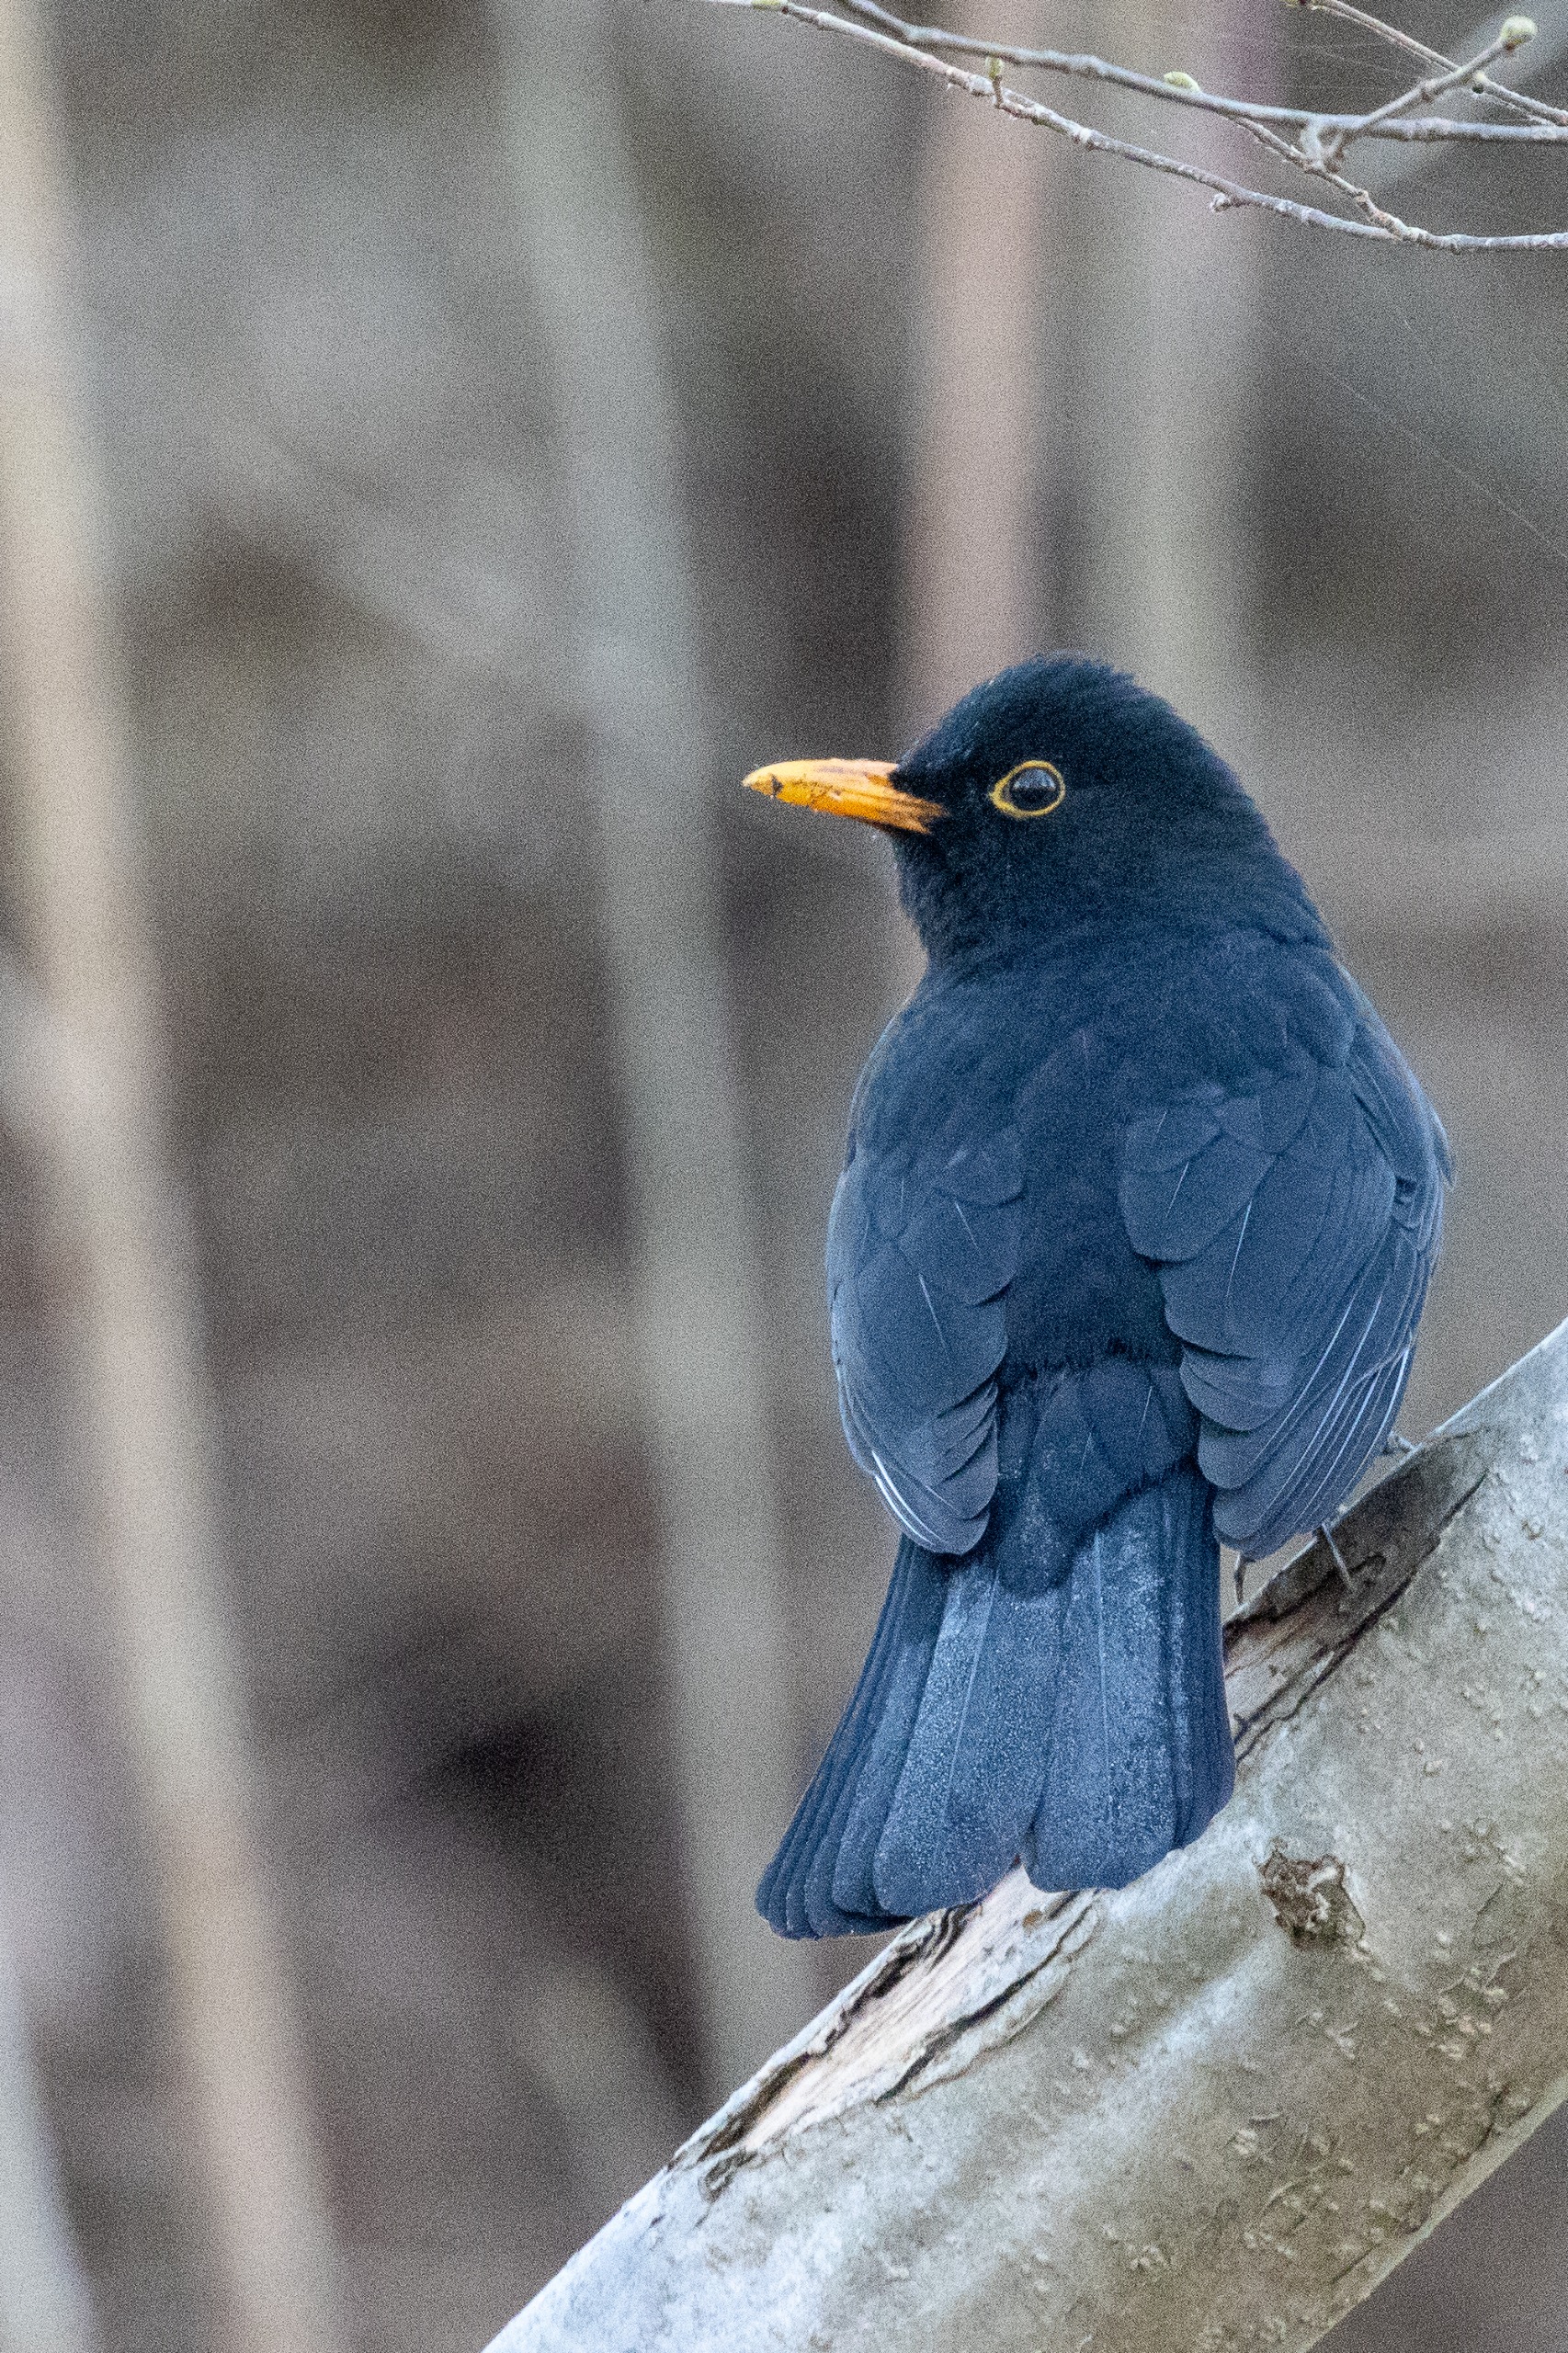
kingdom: Animalia
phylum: Chordata
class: Aves
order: Passeriformes
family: Turdidae
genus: Turdus
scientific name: Turdus merula
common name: Solsort
